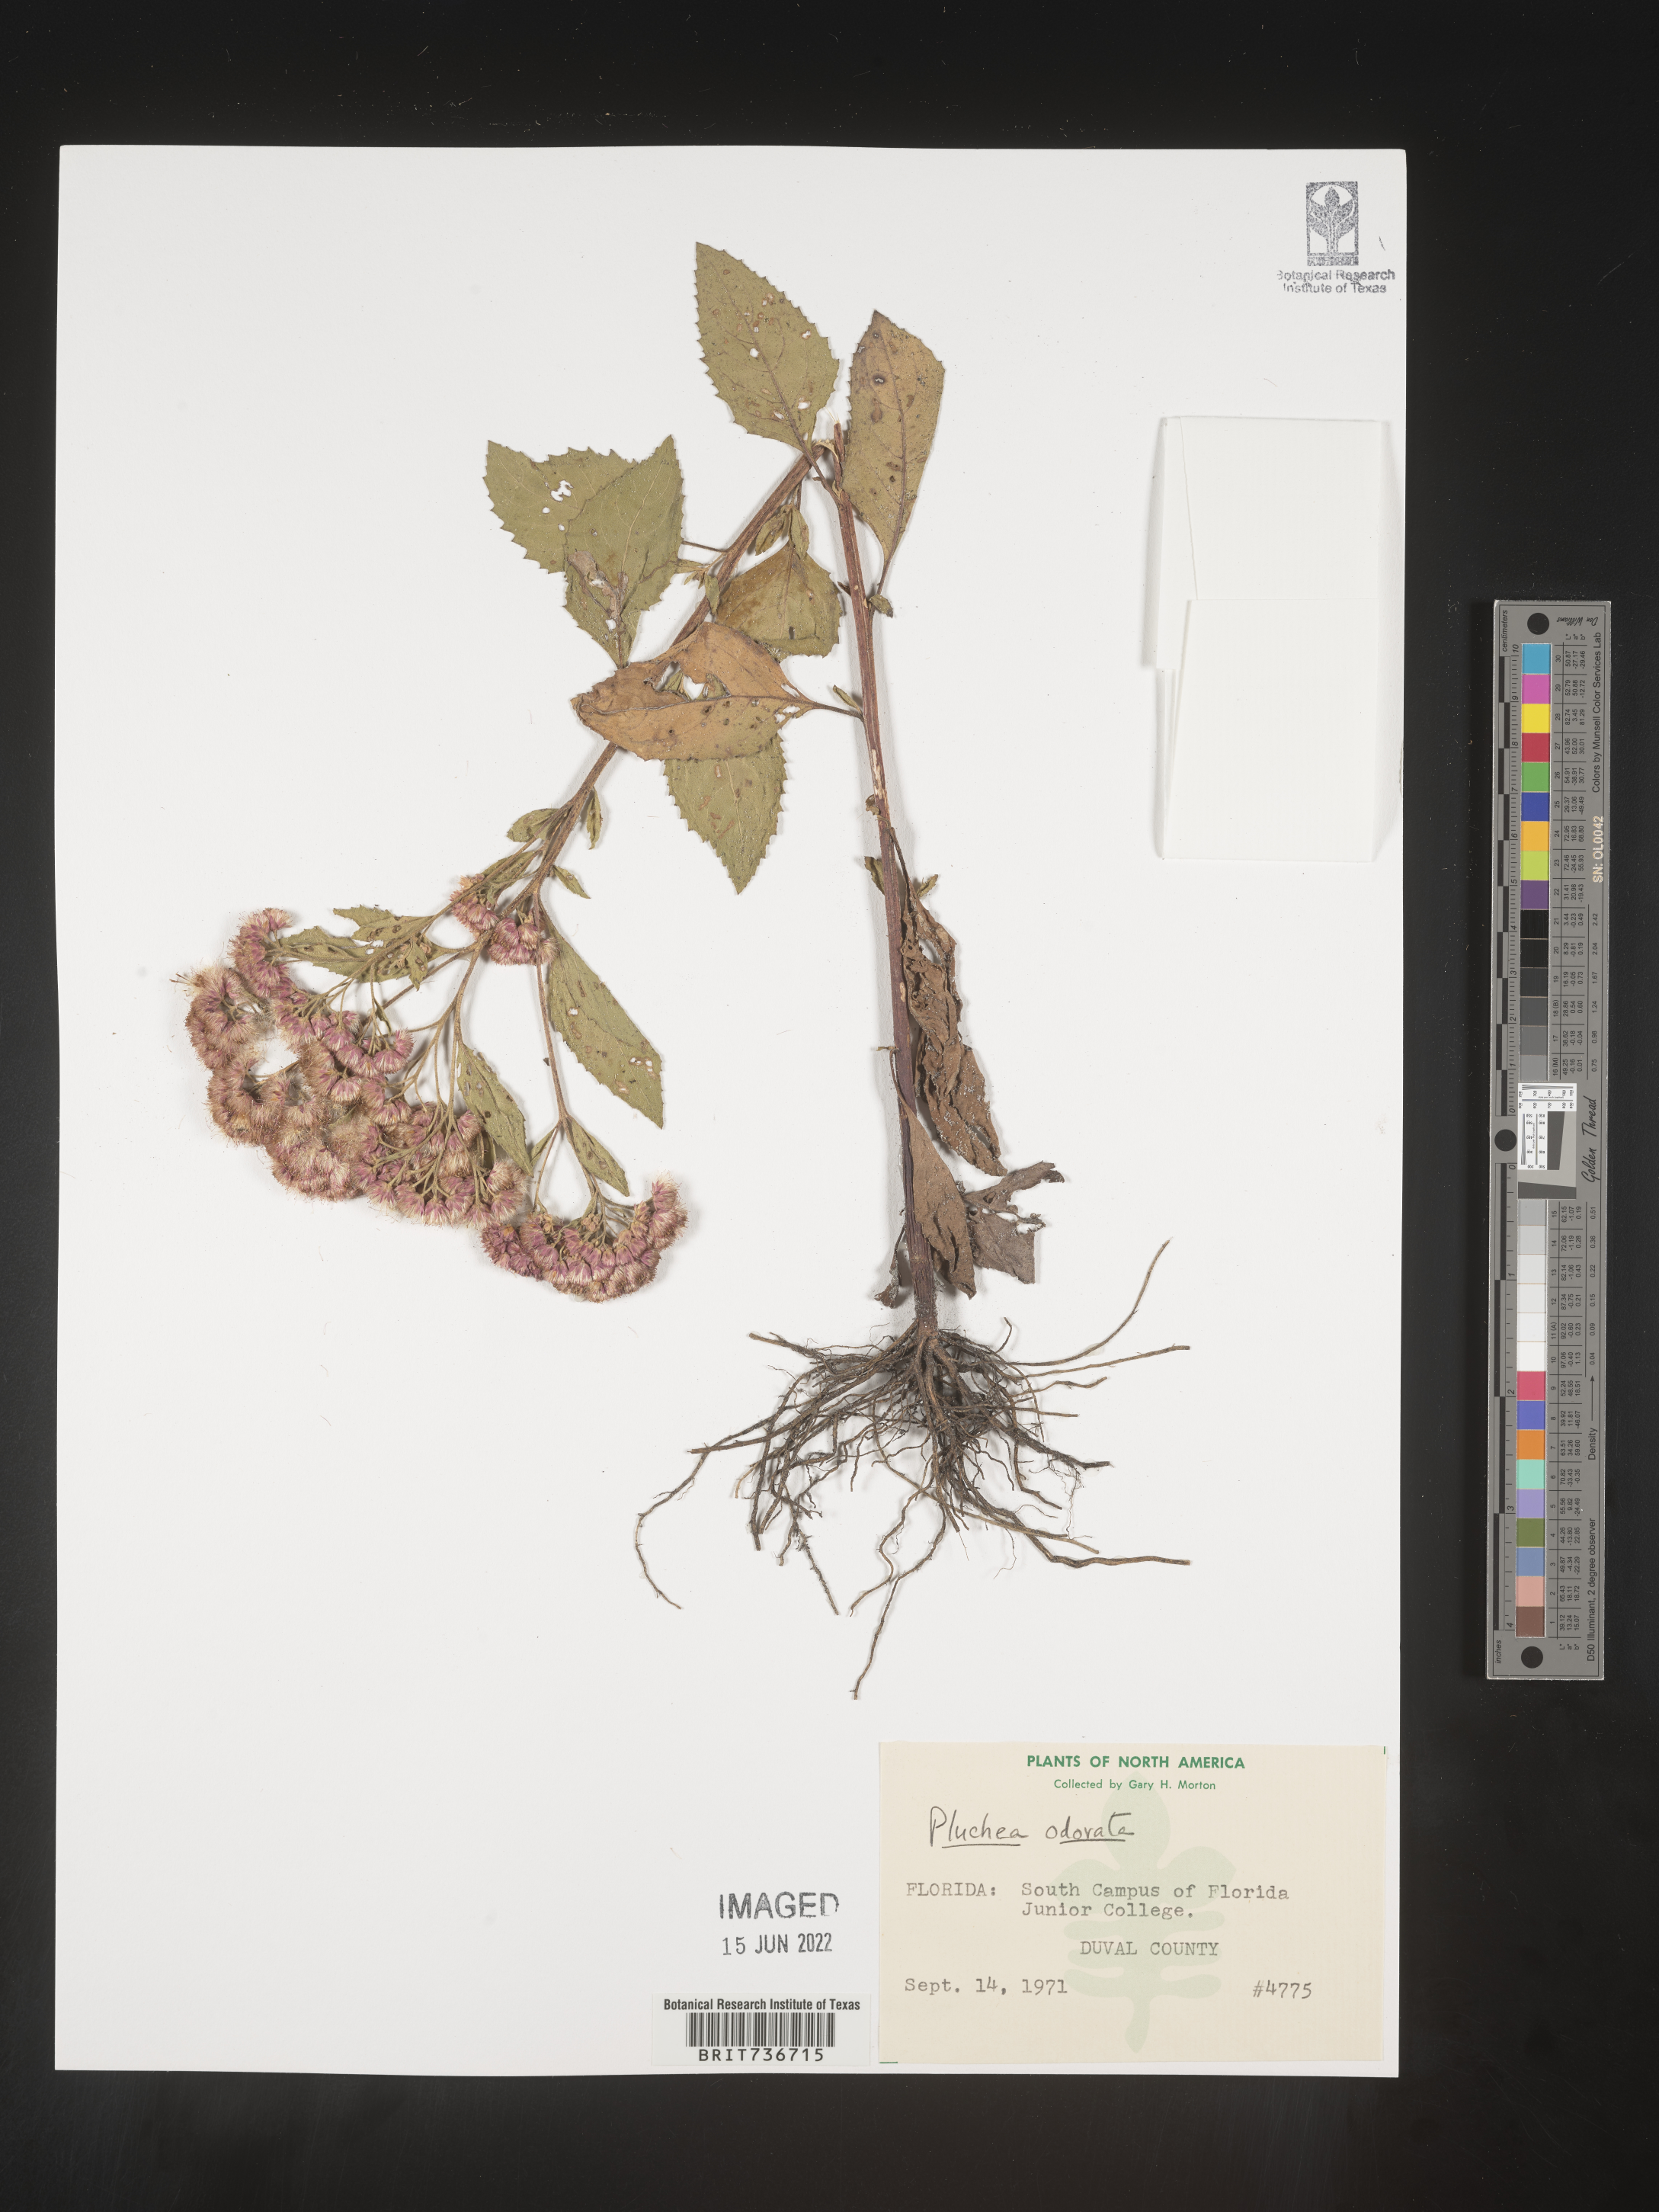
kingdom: Plantae
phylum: Tracheophyta
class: Magnoliopsida
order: Asterales
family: Asteraceae
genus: Pluchea
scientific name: Pluchea odorata
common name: Saltmarsh fleabane
